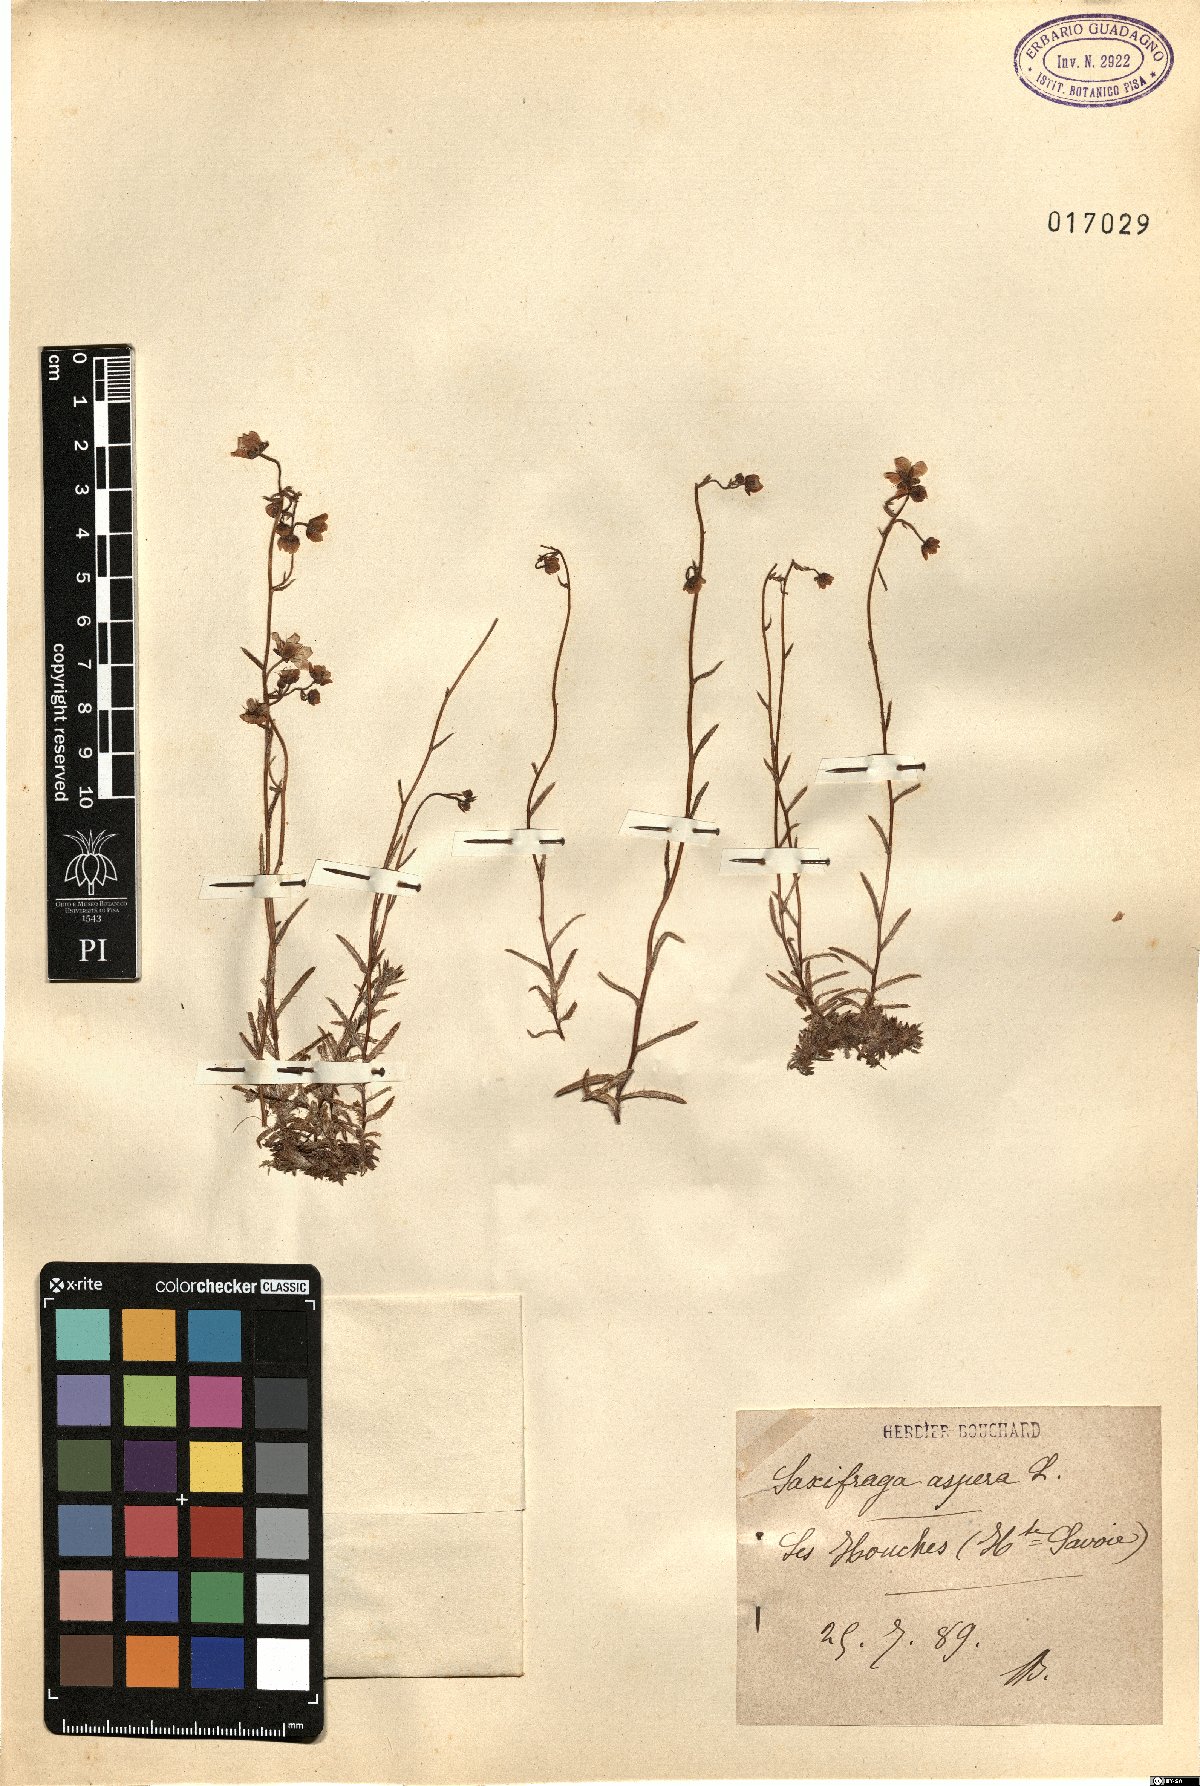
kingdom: Plantae
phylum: Tracheophyta
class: Magnoliopsida
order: Saxifragales
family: Saxifragaceae
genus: Saxifraga
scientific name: Saxifraga aspera
